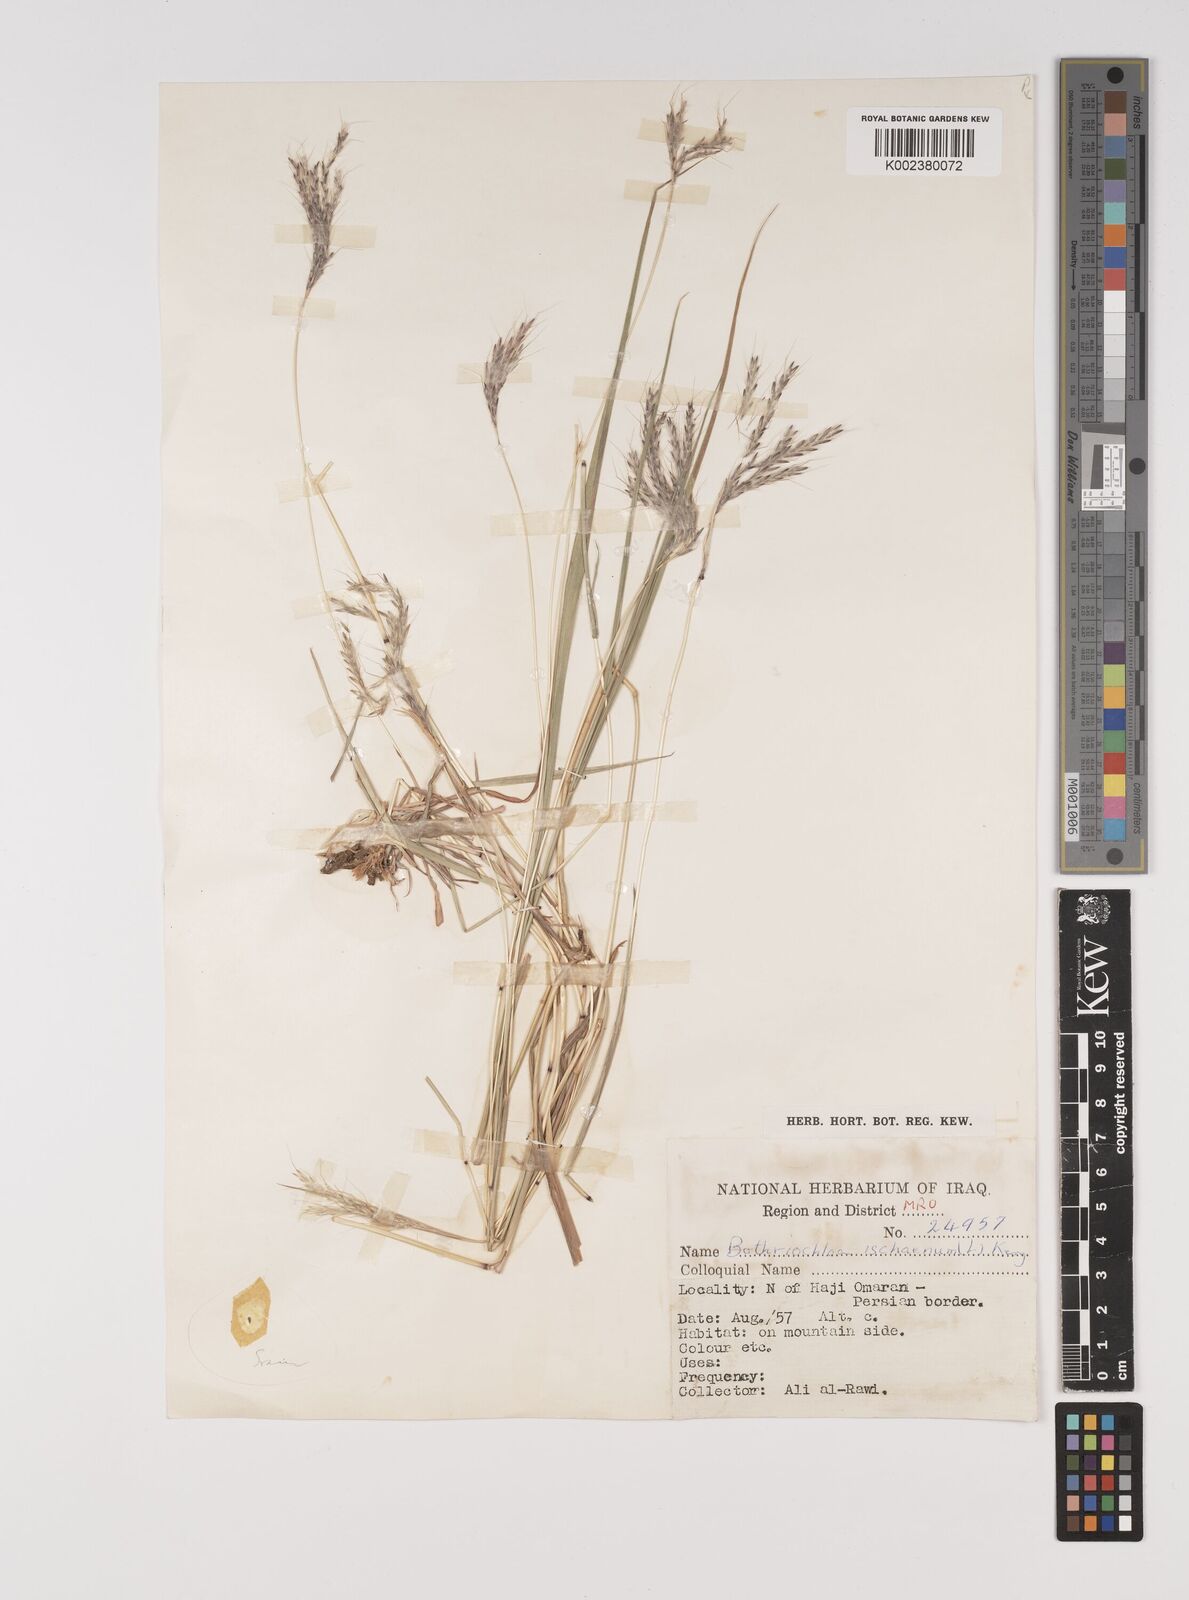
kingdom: Plantae
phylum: Tracheophyta
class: Liliopsida
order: Poales
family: Poaceae
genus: Bothriochloa
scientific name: Bothriochloa ischaemum
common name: Yellow bluestem
